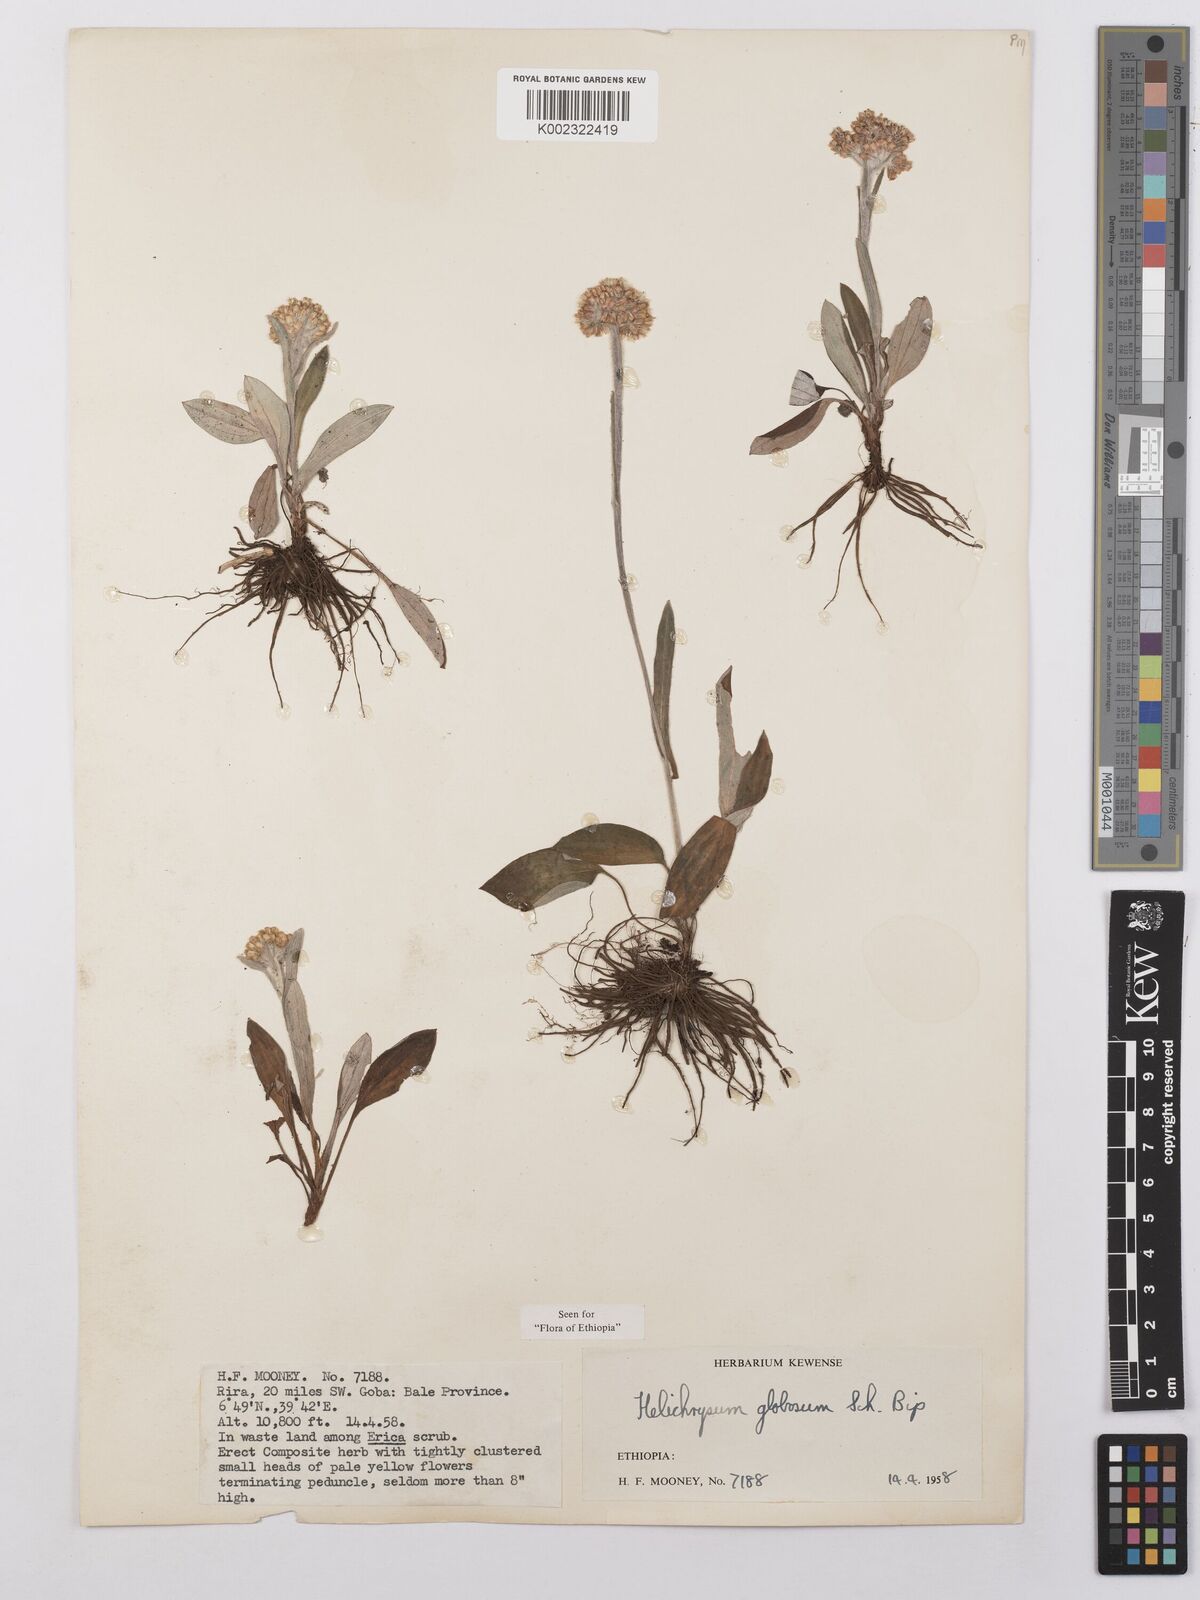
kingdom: Plantae
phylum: Tracheophyta
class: Magnoliopsida
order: Asterales
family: Asteraceae
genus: Helichrysum
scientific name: Helichrysum globosum
